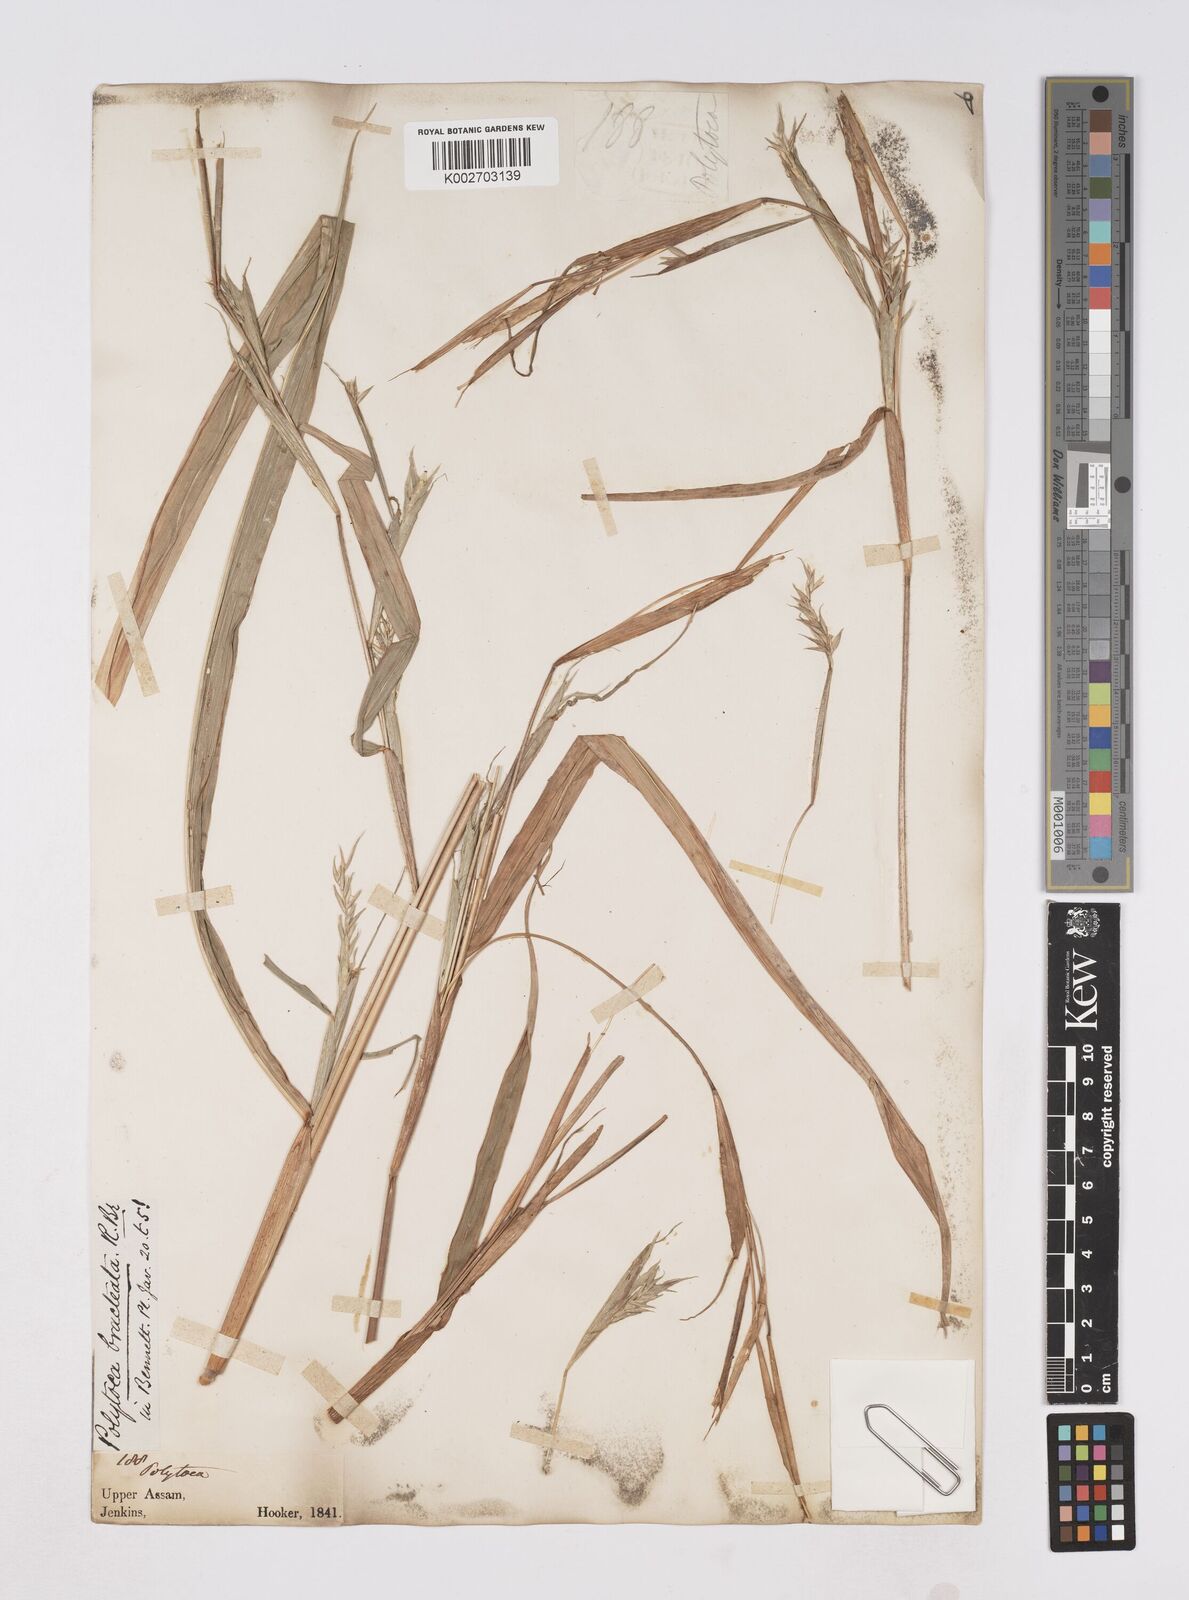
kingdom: Plantae
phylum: Tracheophyta
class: Liliopsida
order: Poales
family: Poaceae
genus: Polytoca
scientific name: Polytoca digitata
